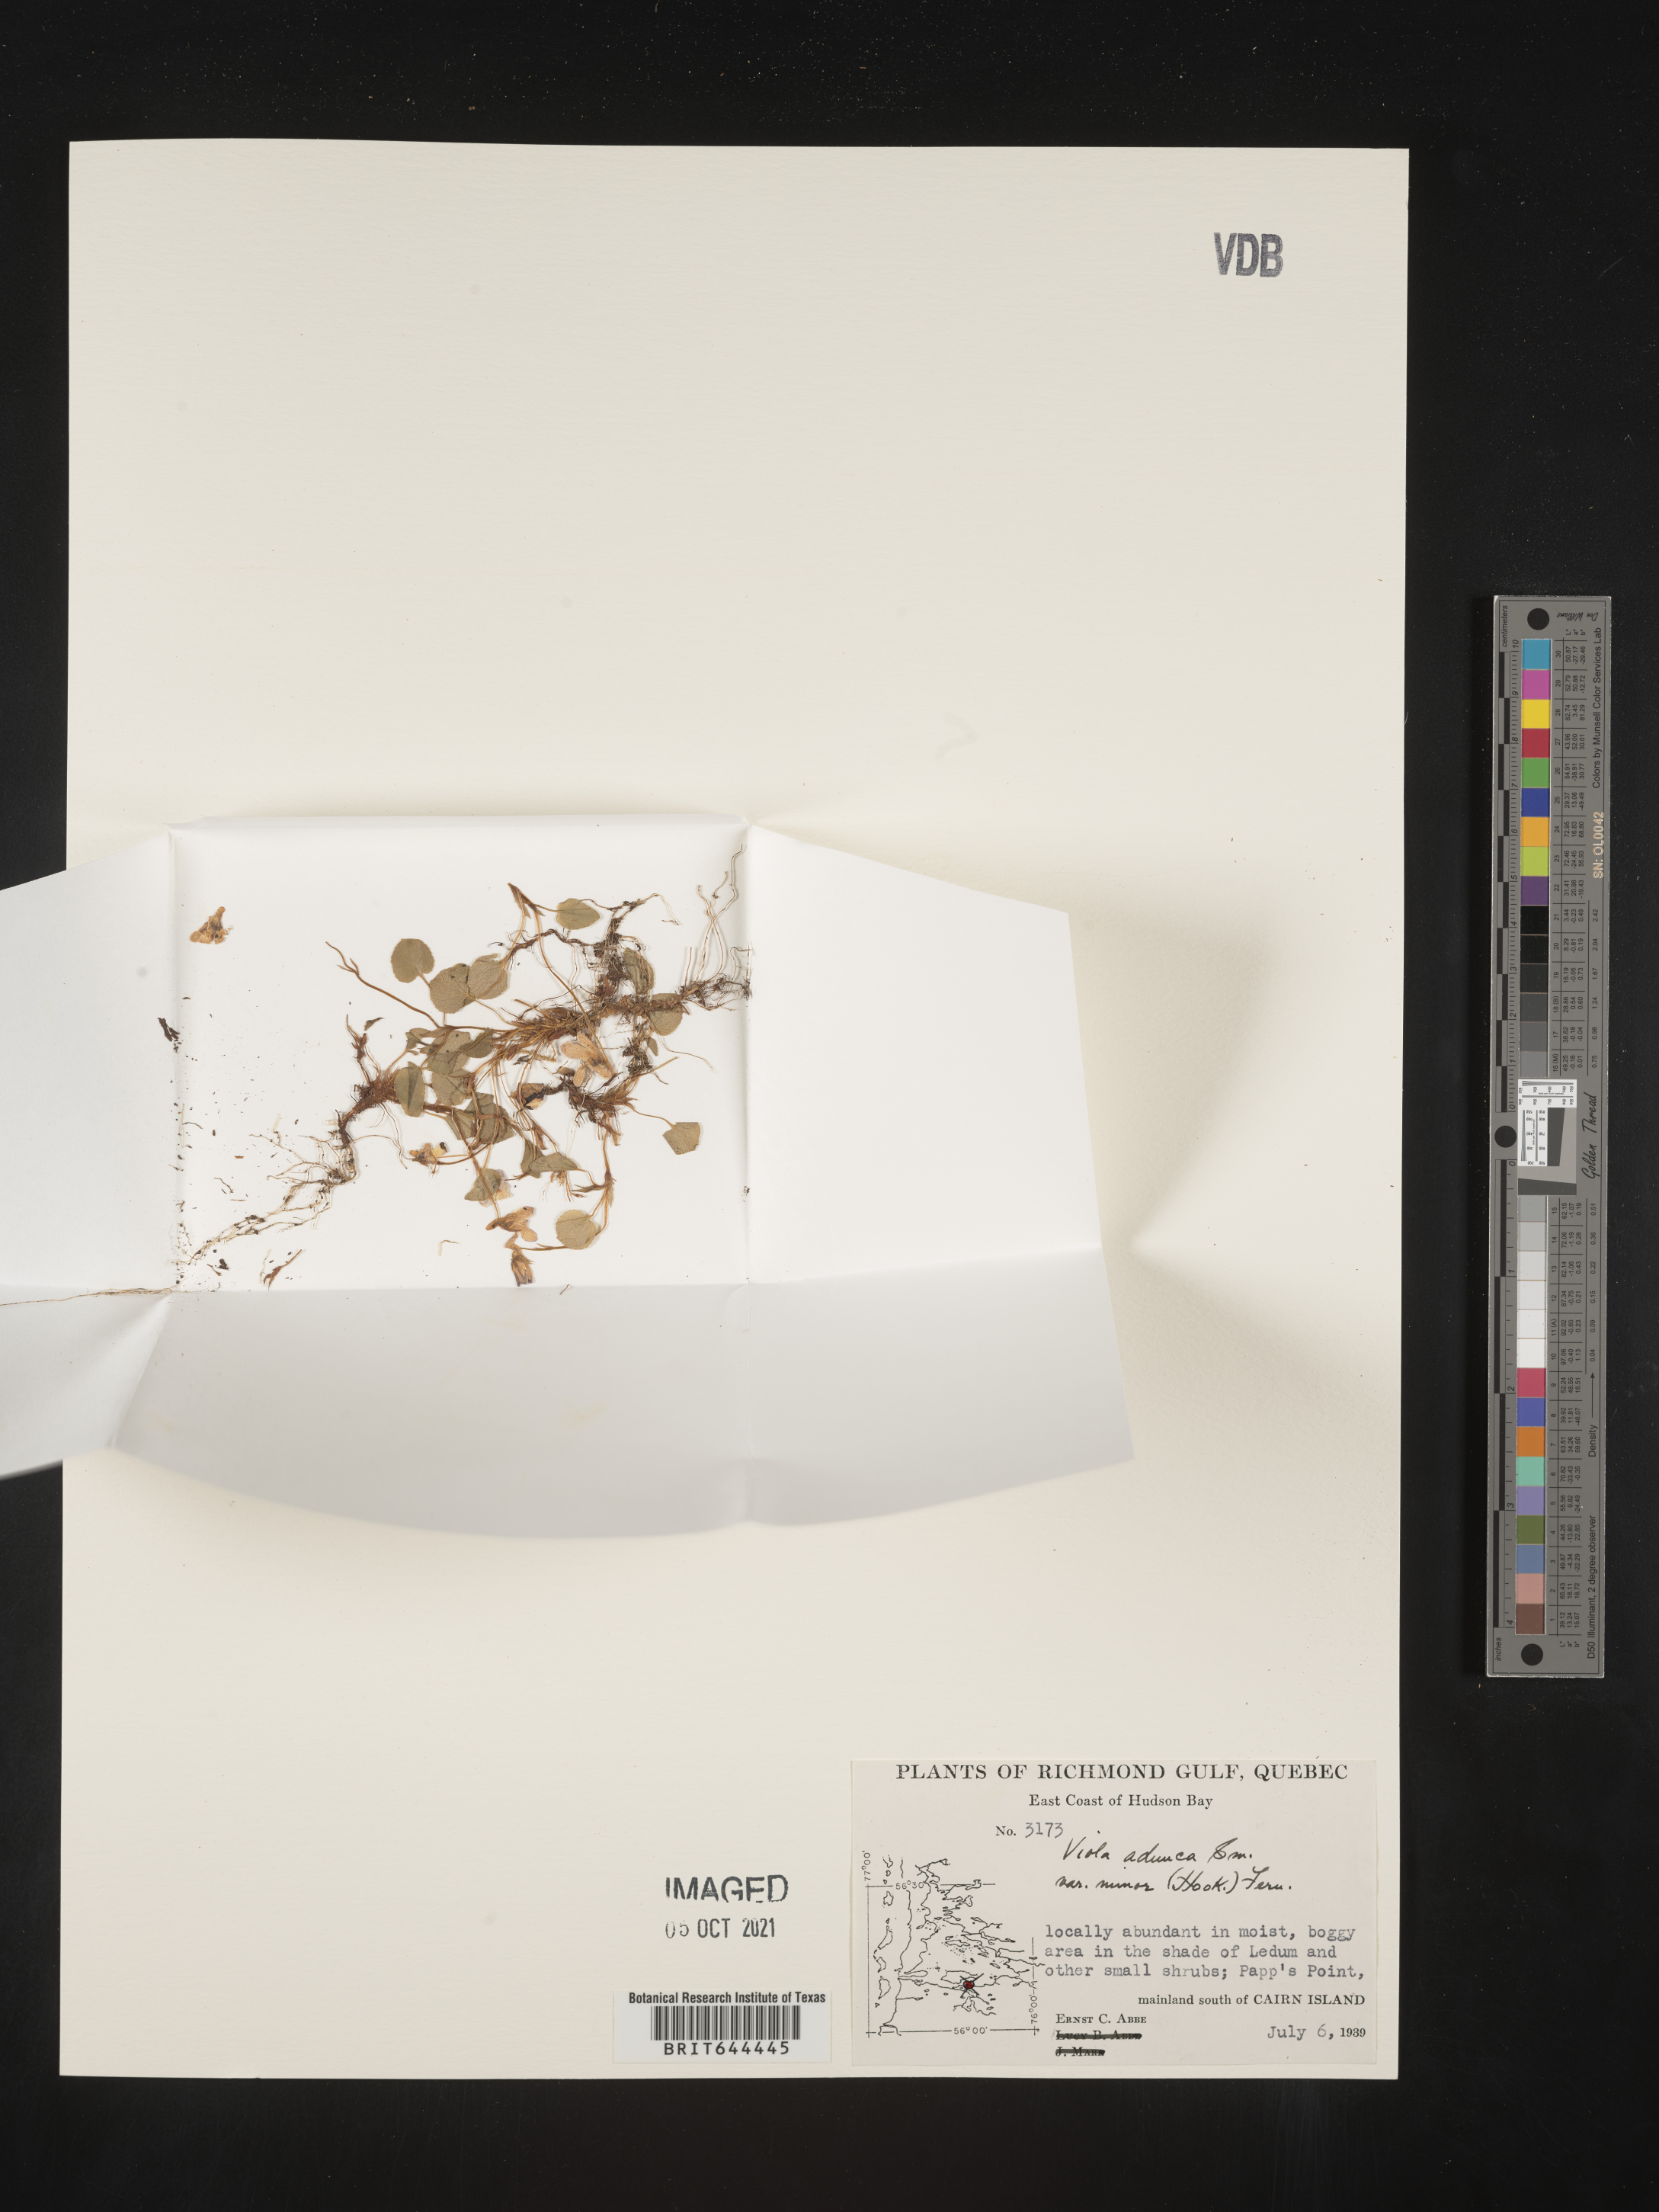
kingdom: Plantae
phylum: Tracheophyta
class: Magnoliopsida
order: Malpighiales
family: Violaceae
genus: Viola
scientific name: Viola
